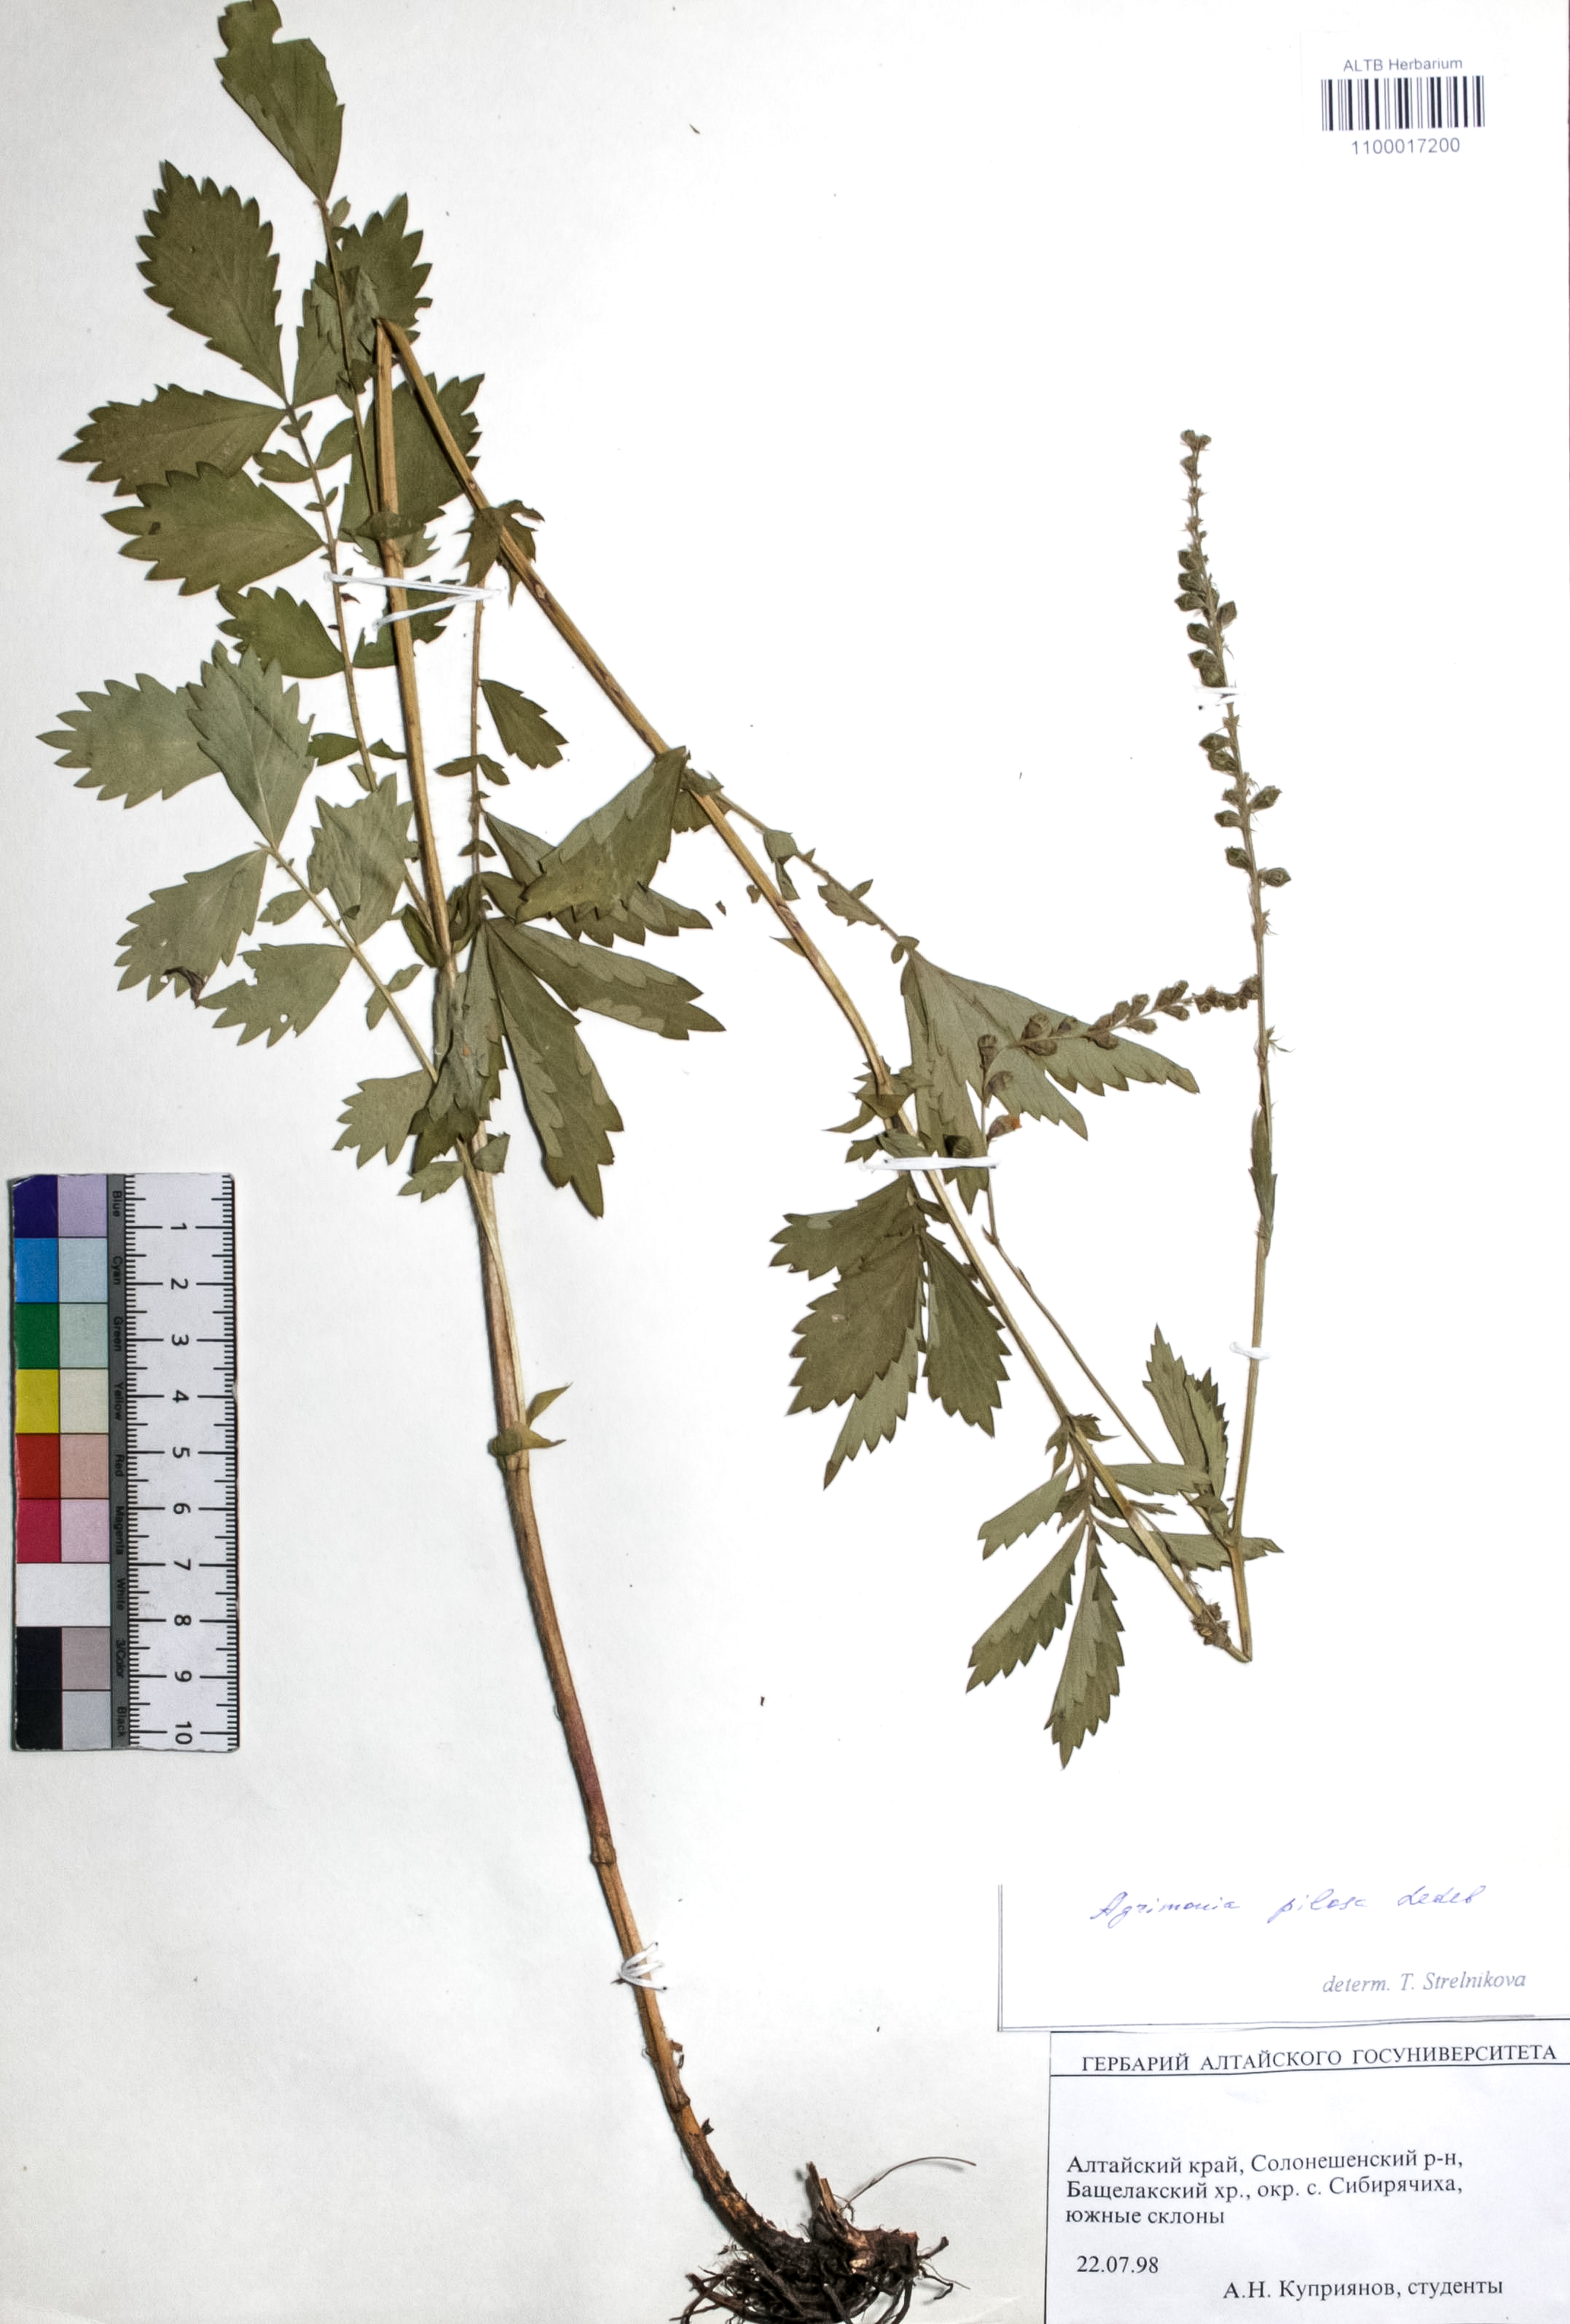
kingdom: Plantae
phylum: Tracheophyta
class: Magnoliopsida
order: Rosales
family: Rosaceae
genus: Agrimonia
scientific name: Agrimonia pilosa
